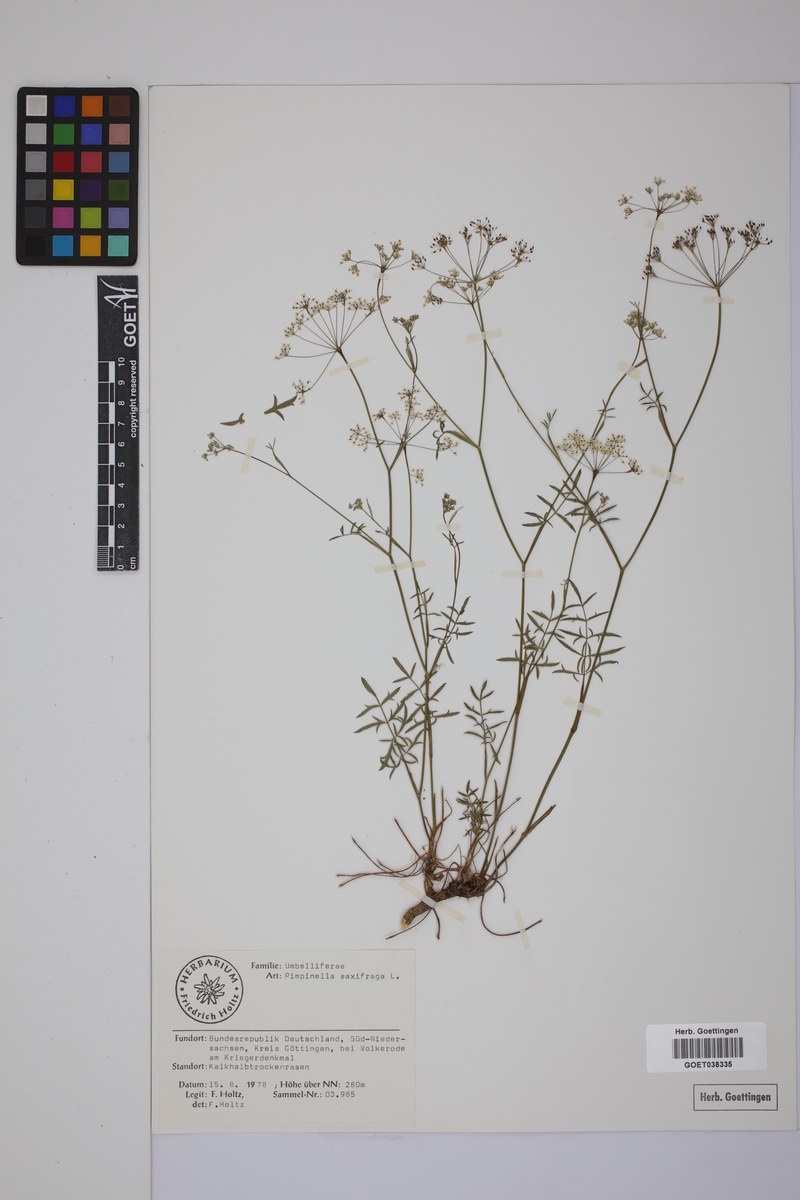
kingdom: Plantae
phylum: Tracheophyta
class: Magnoliopsida
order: Apiales
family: Apiaceae
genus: Pimpinella
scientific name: Pimpinella saxifraga
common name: Burnet-saxifrage
